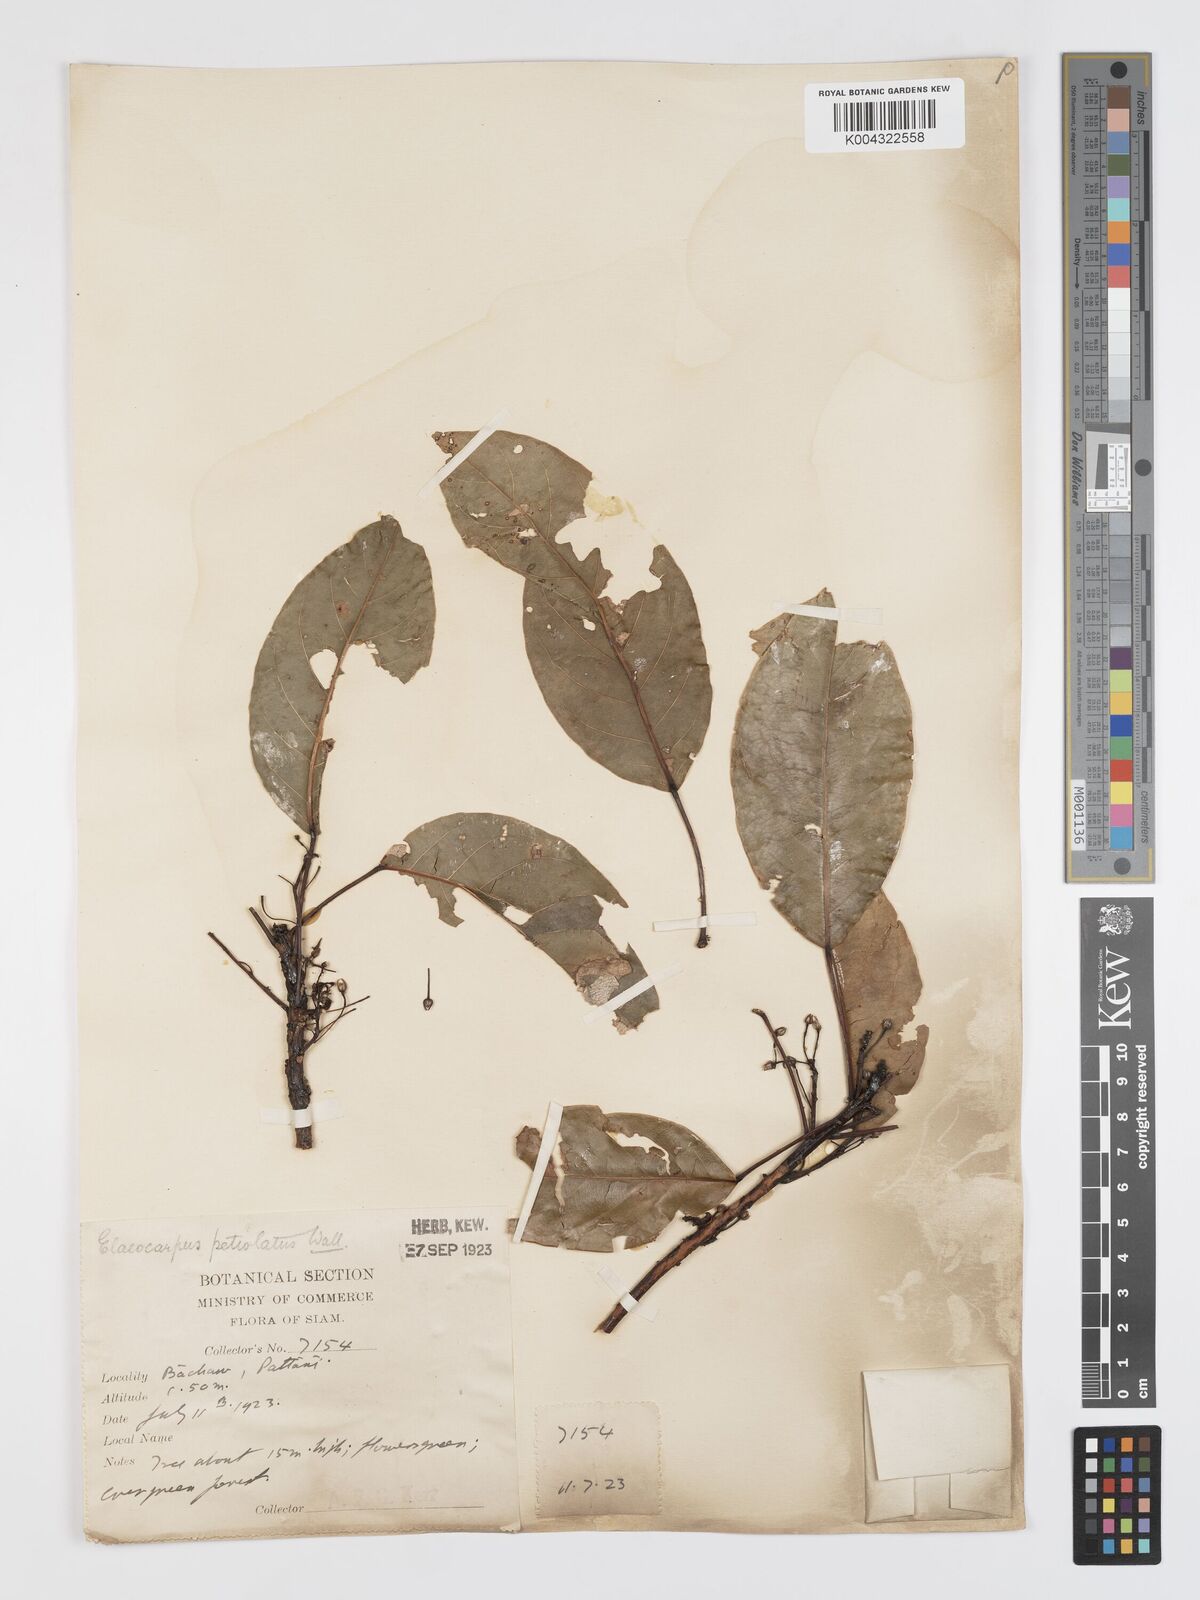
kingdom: Plantae
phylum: Tracheophyta
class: Magnoliopsida
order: Oxalidales
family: Elaeocarpaceae
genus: Elaeocarpus
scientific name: Elaeocarpus petiolatus
